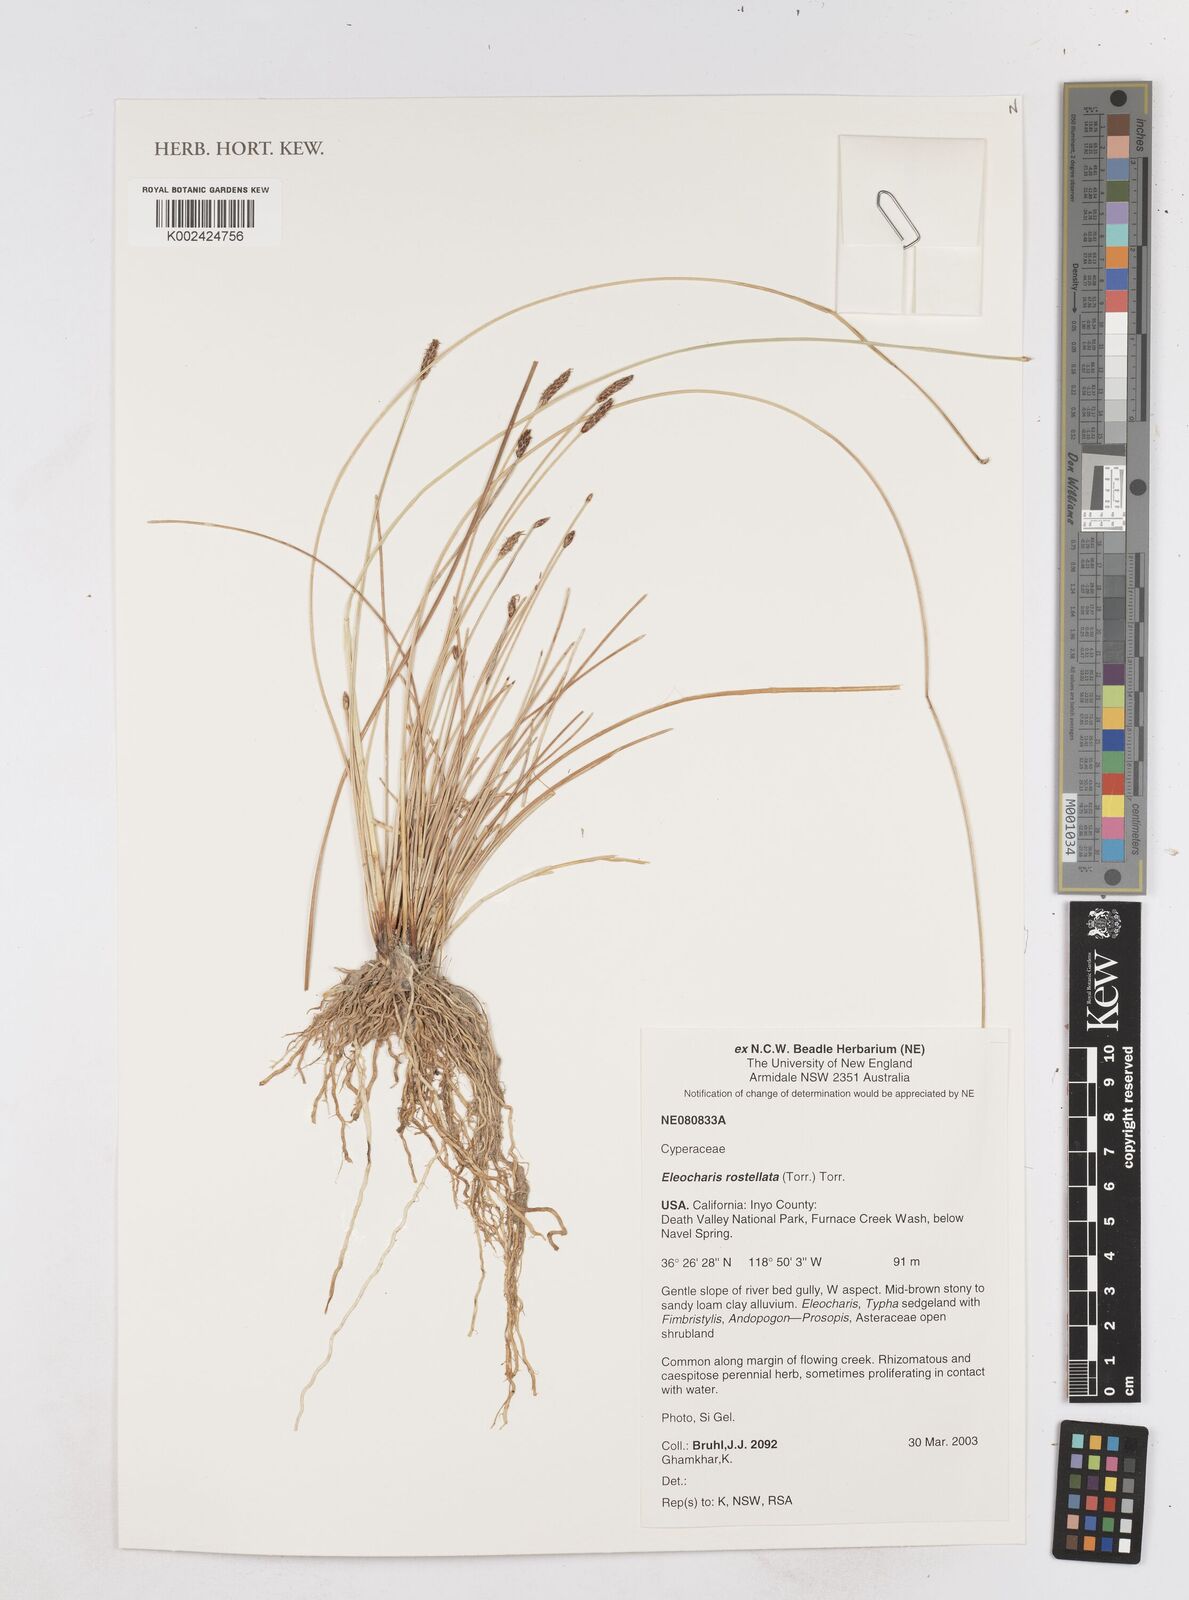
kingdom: Plantae
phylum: Tracheophyta
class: Liliopsida
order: Poales
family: Cyperaceae
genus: Eleocharis
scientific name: Eleocharis rostellata
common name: Walking sedge
